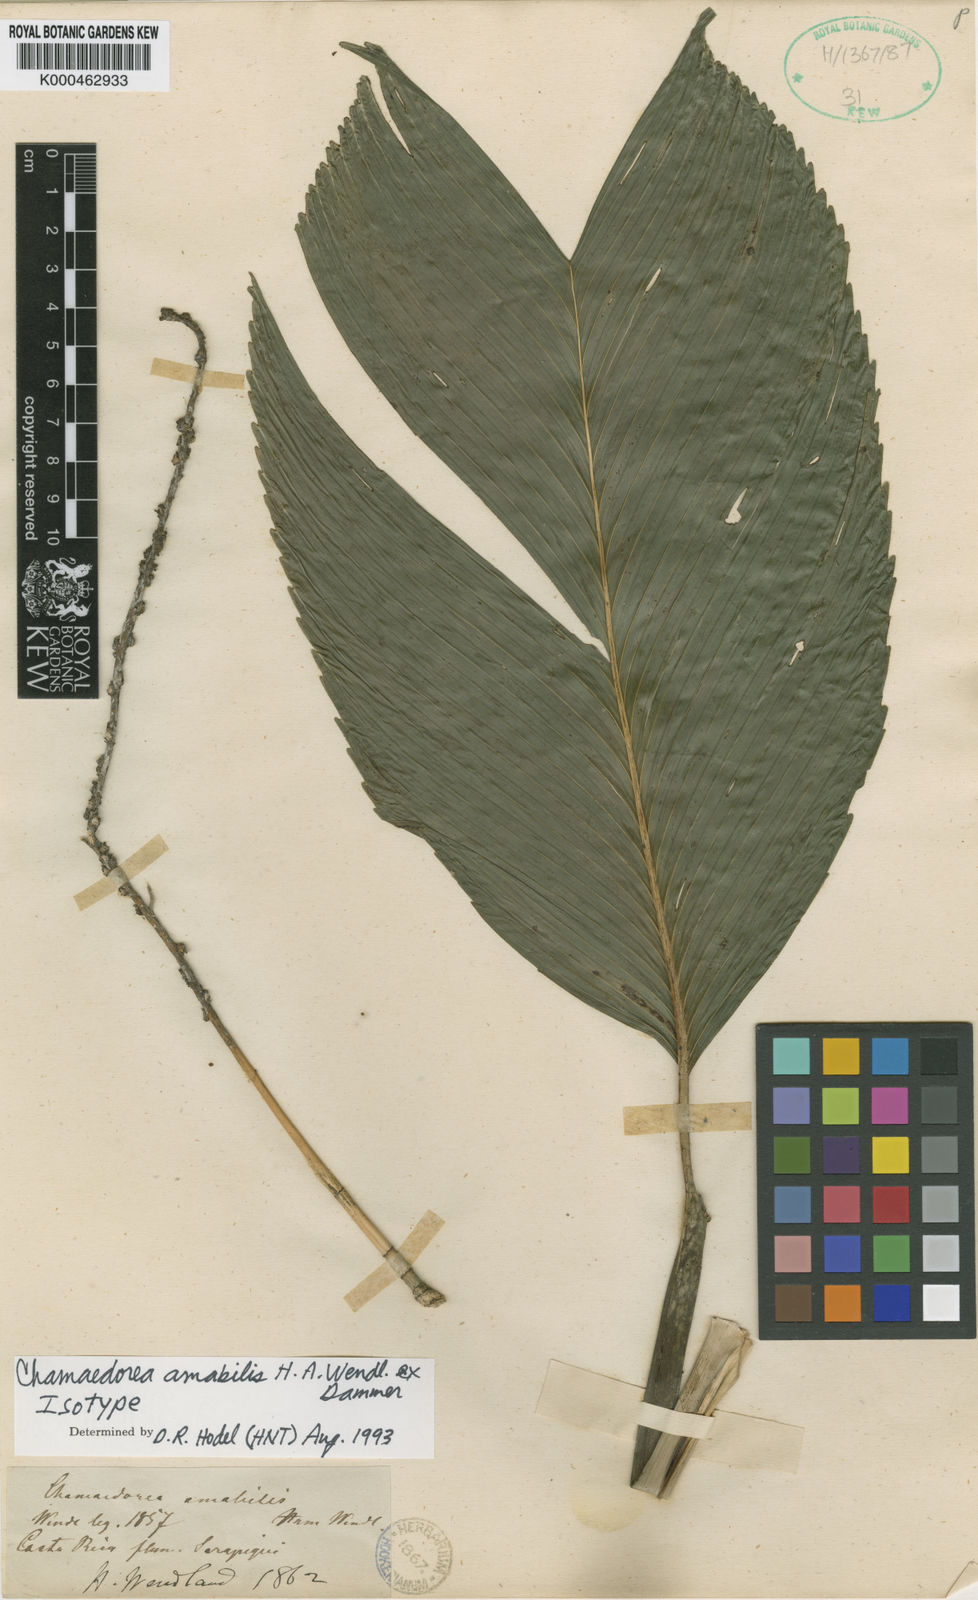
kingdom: Plantae
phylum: Tracheophyta
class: Liliopsida
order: Arecales
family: Arecaceae
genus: Chamaedorea
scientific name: Chamaedorea amabilis
